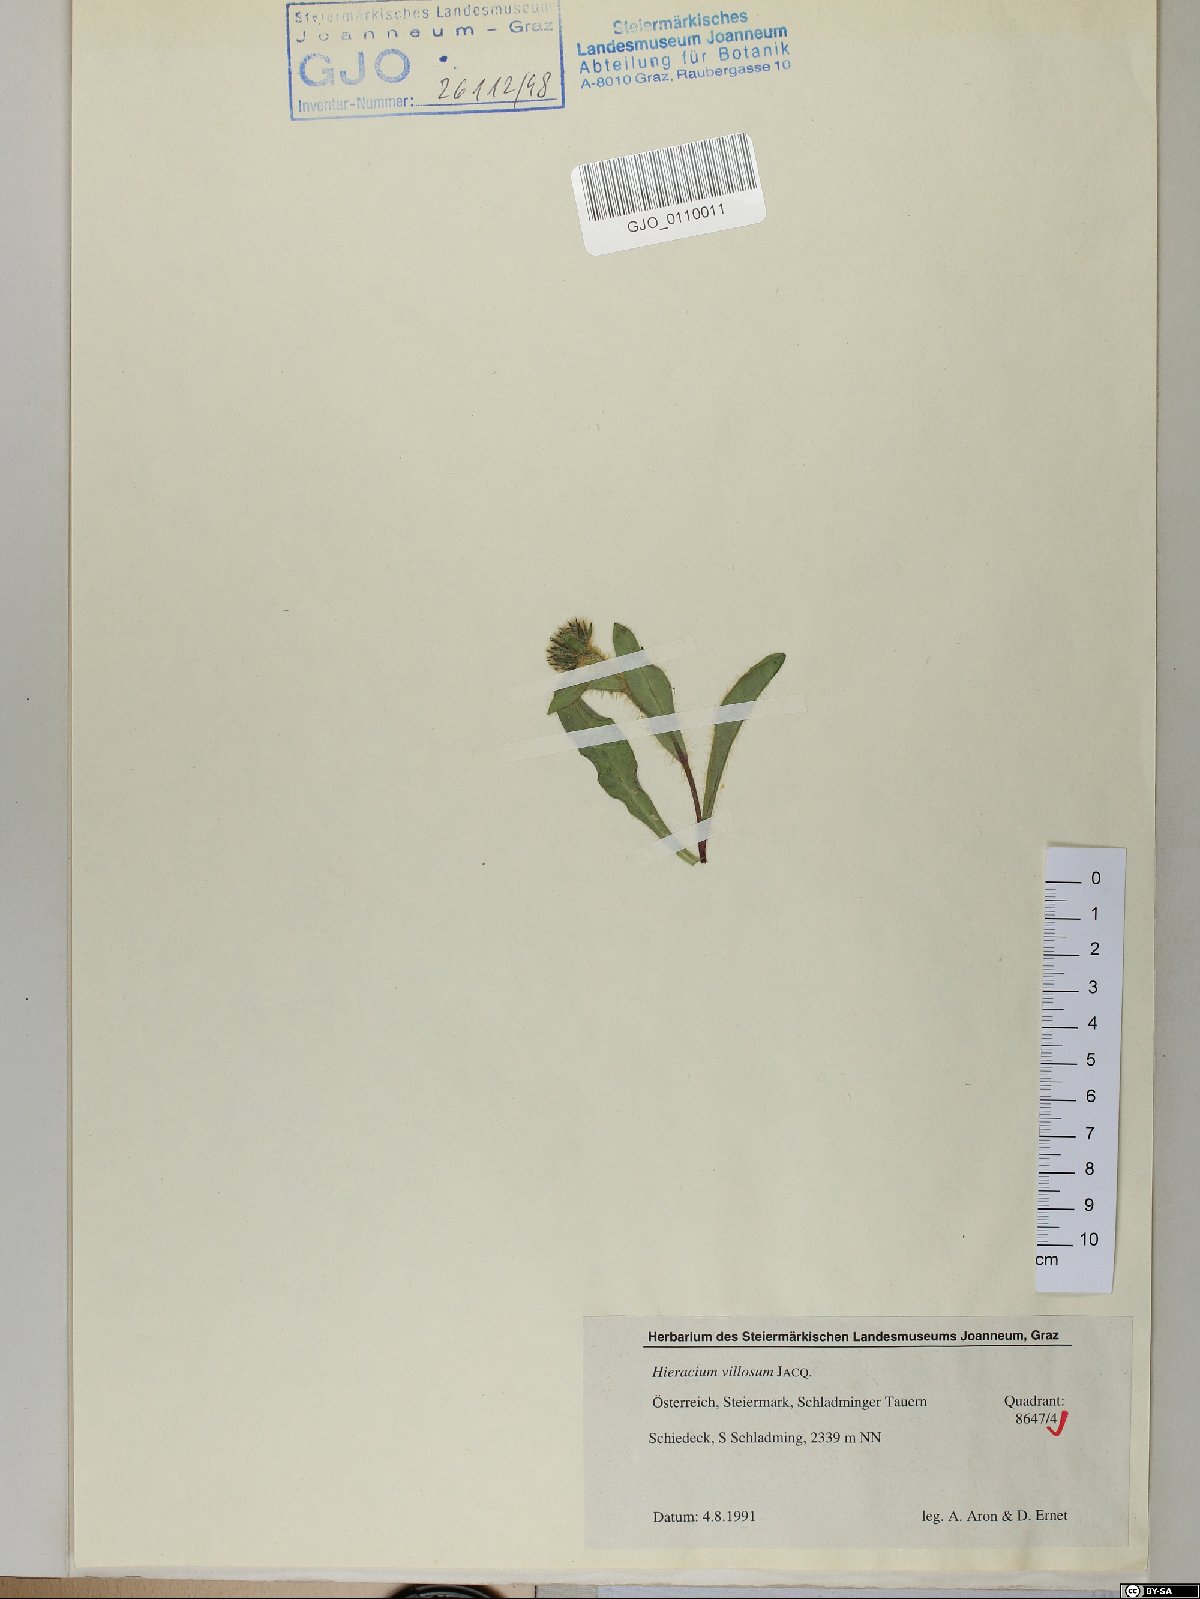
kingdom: Plantae
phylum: Tracheophyta
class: Magnoliopsida
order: Asterales
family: Asteraceae
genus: Hieracium
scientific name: Hieracium villosum
